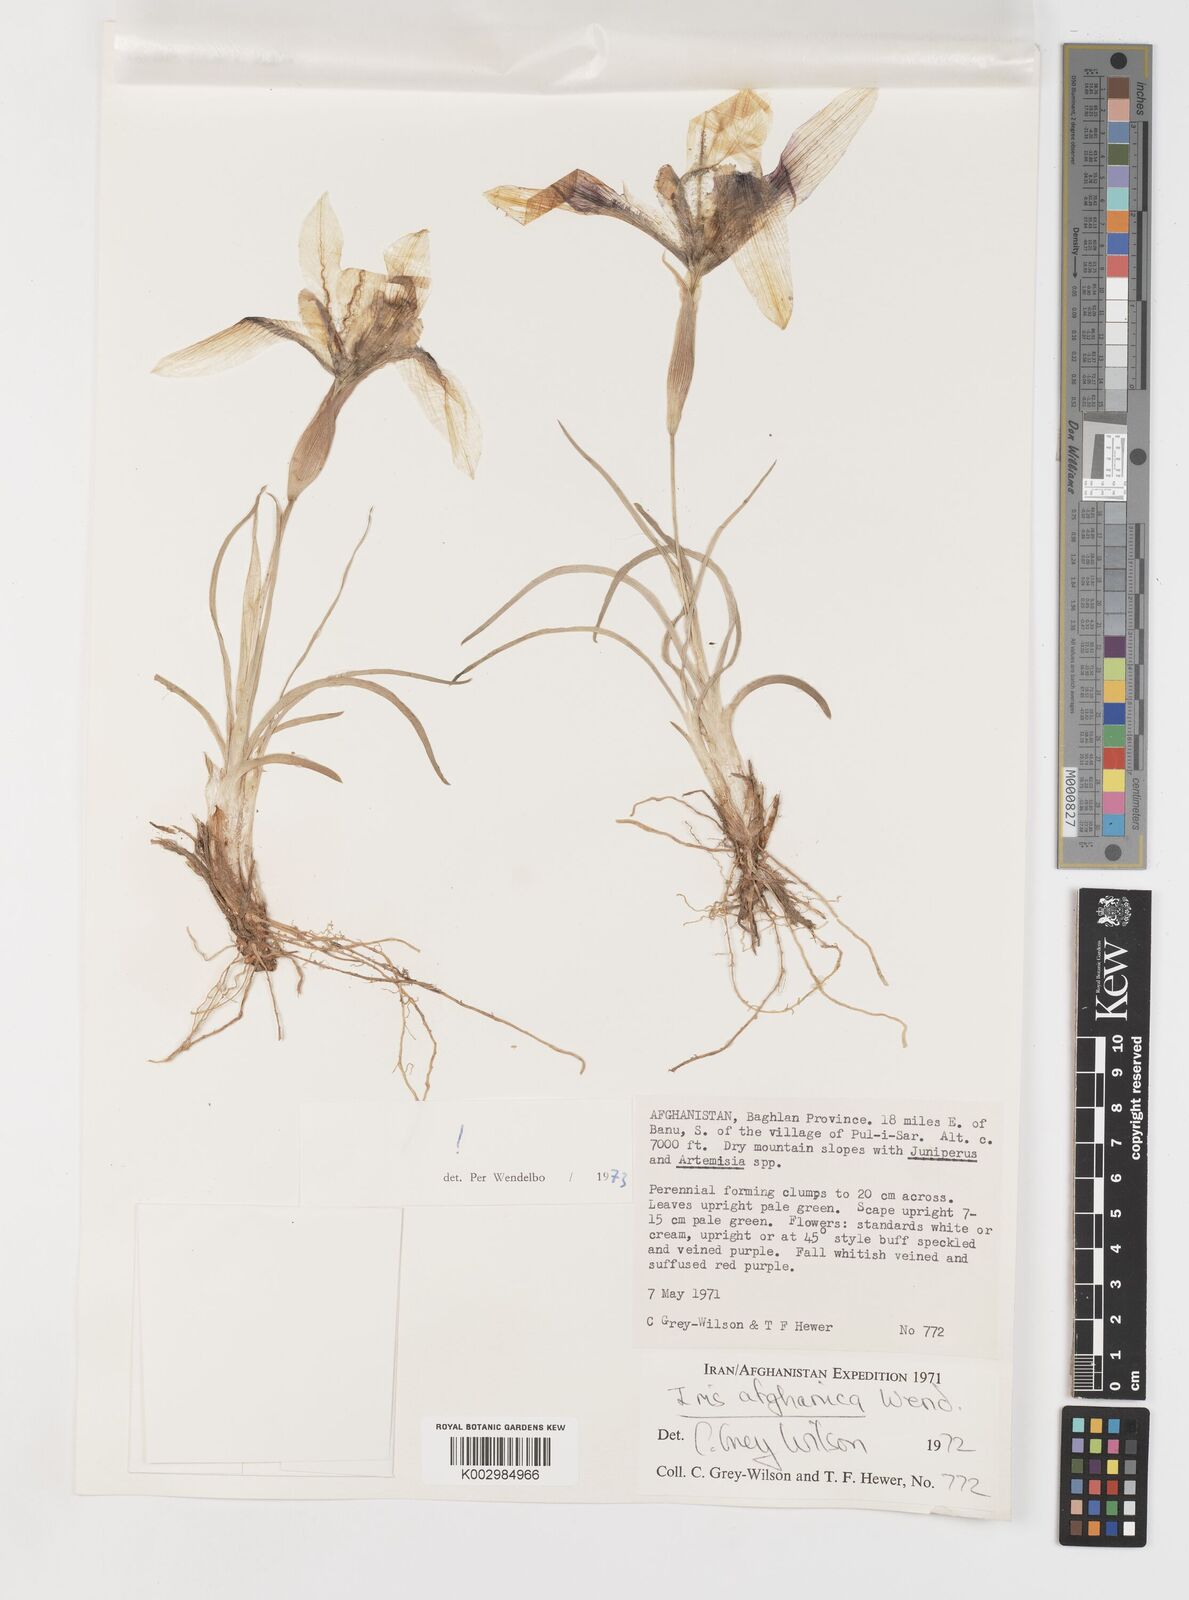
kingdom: Plantae
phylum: Tracheophyta
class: Liliopsida
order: Asparagales
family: Iridaceae
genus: Iris
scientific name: Iris afghanica
